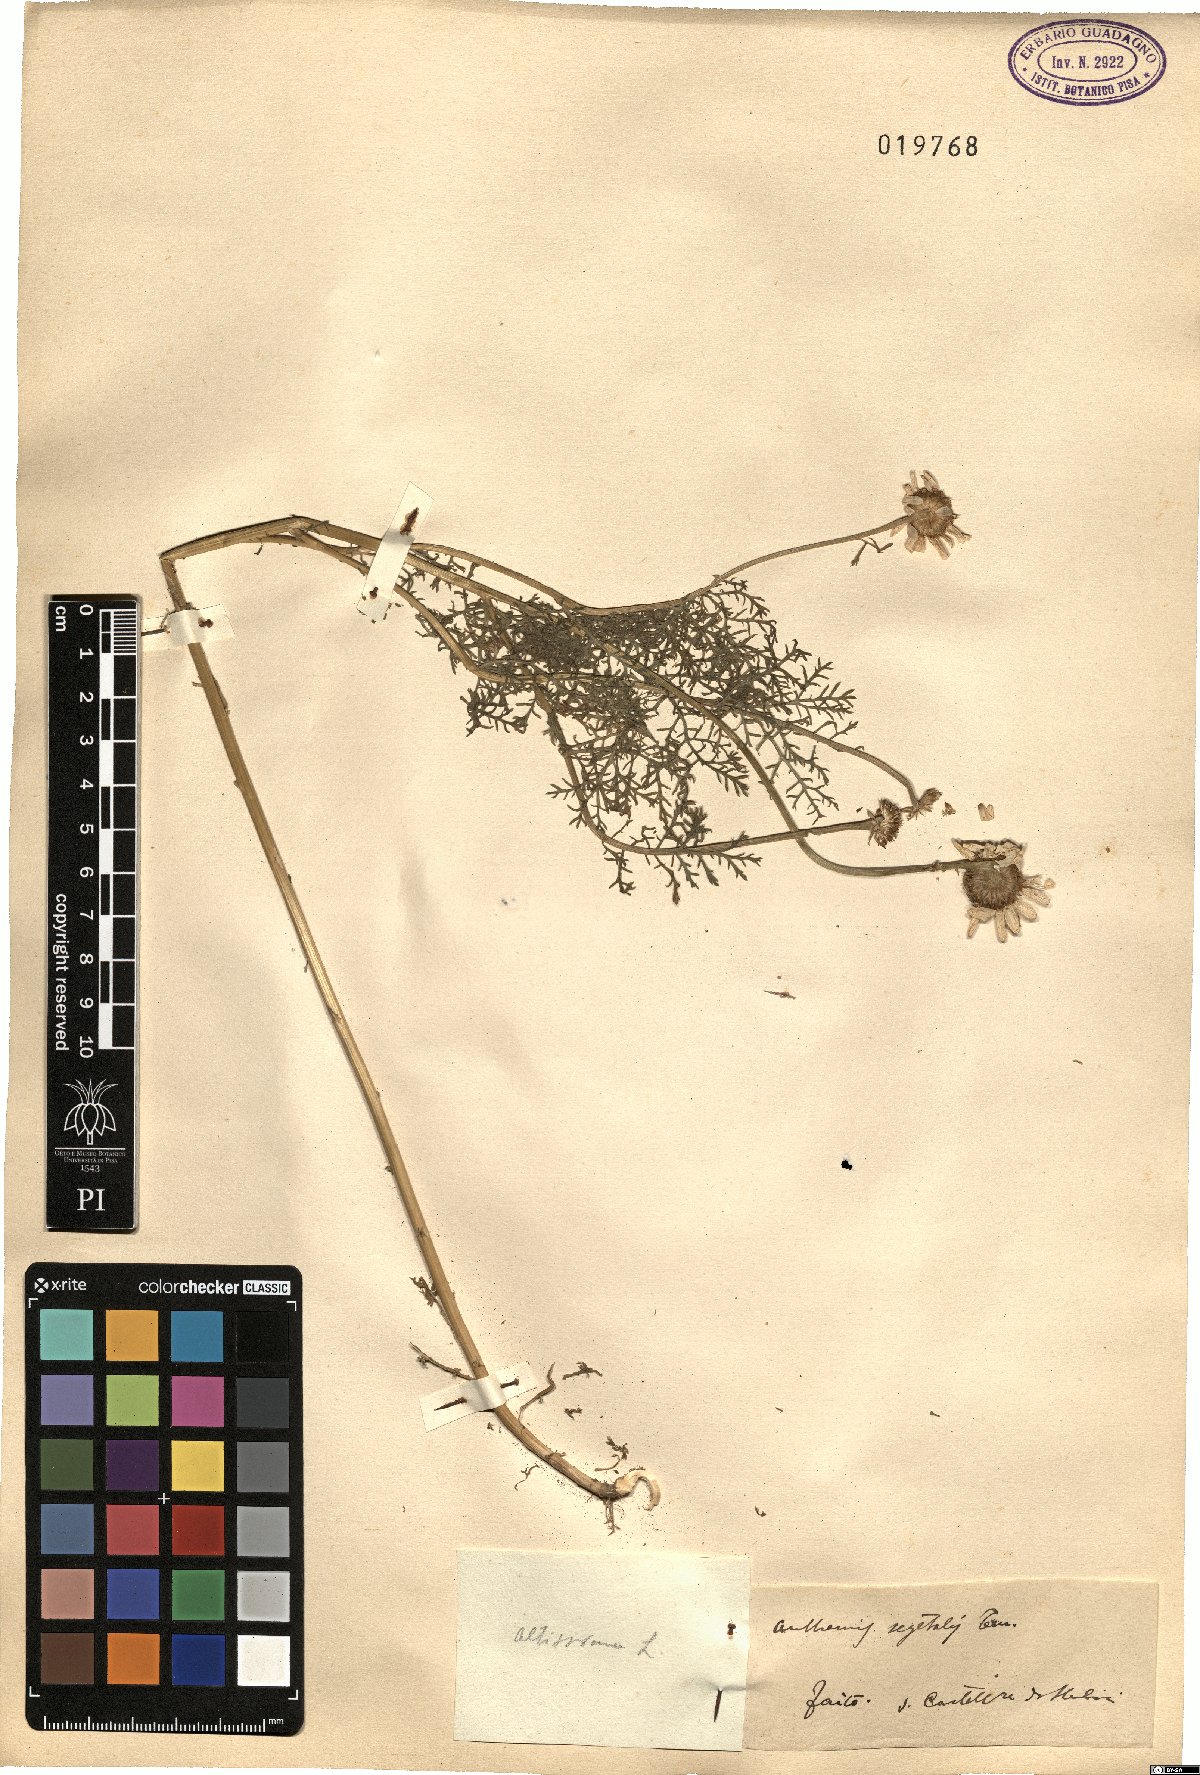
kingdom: Plantae
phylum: Tracheophyta
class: Magnoliopsida
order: Asterales
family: Asteraceae
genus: Cota
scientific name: Cota segetalis
